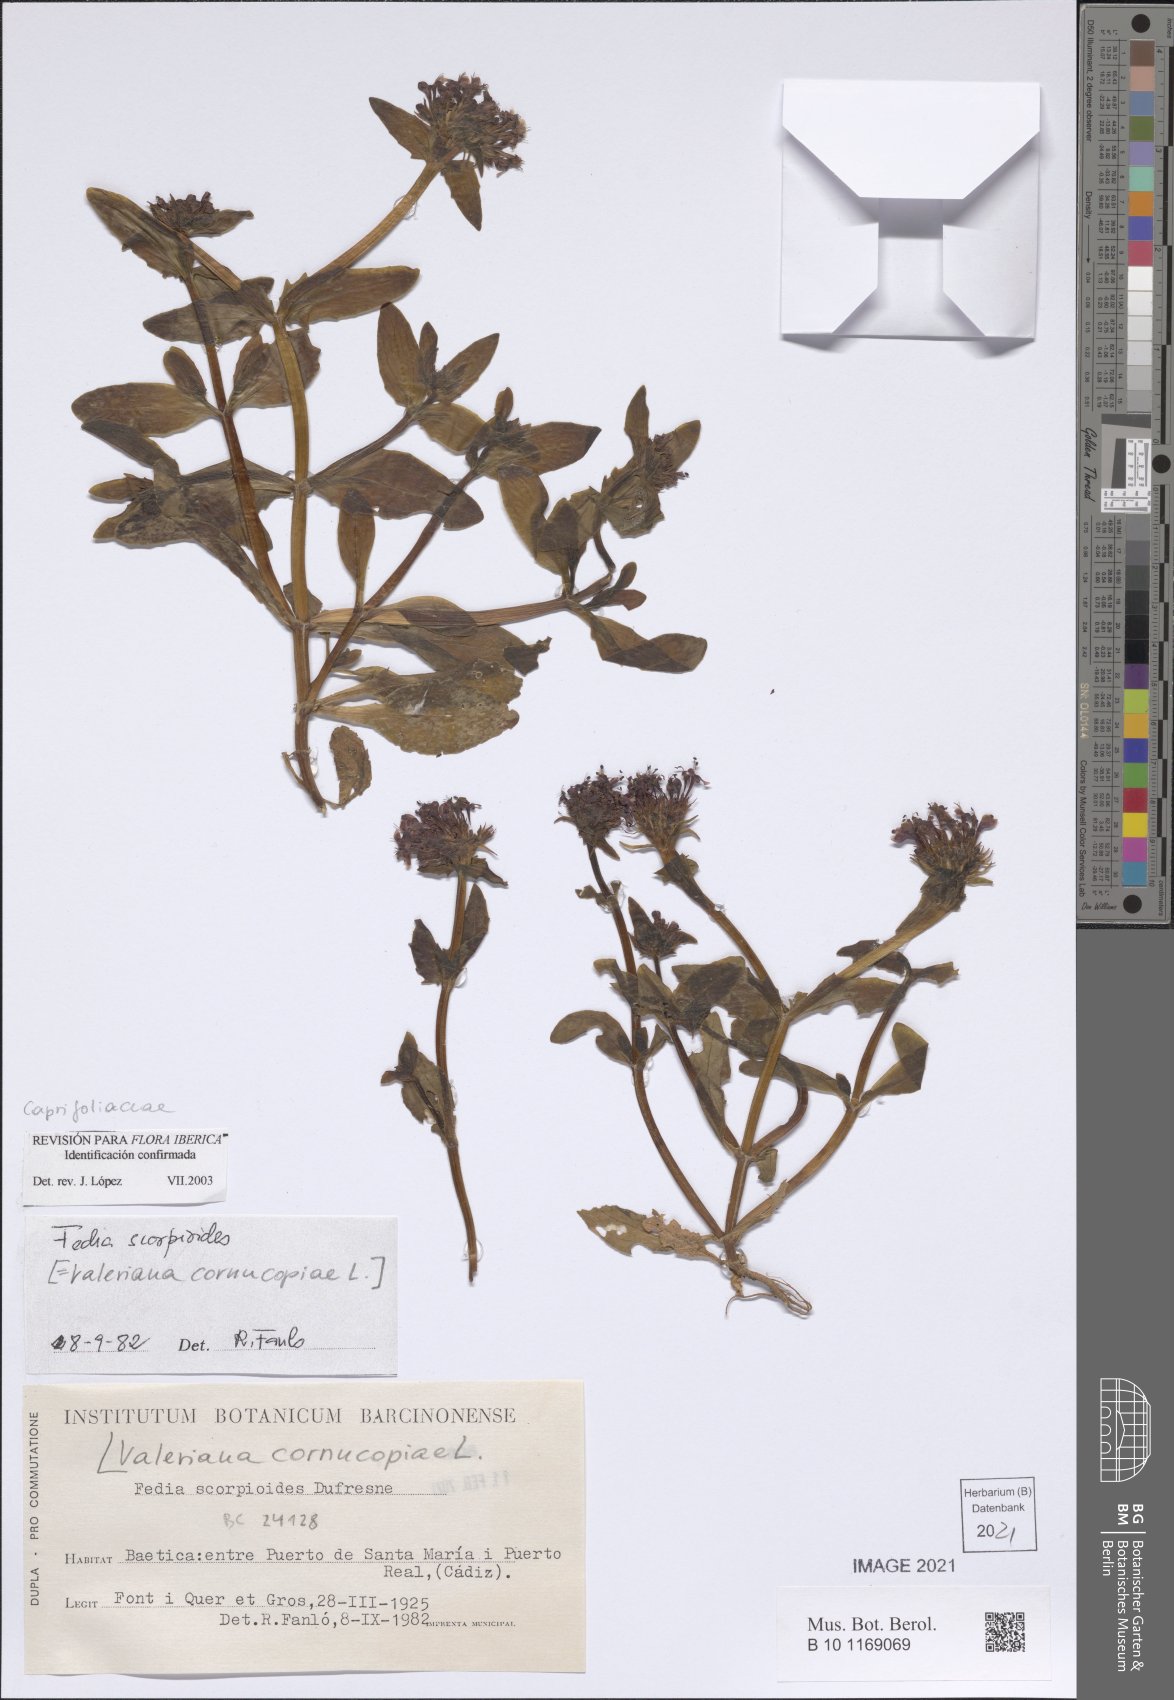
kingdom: Plantae
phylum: Tracheophyta
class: Magnoliopsida
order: Dipsacales
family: Caprifoliaceae
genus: Fedia
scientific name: Fedia cornucopiae
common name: Horn-of-plenty
